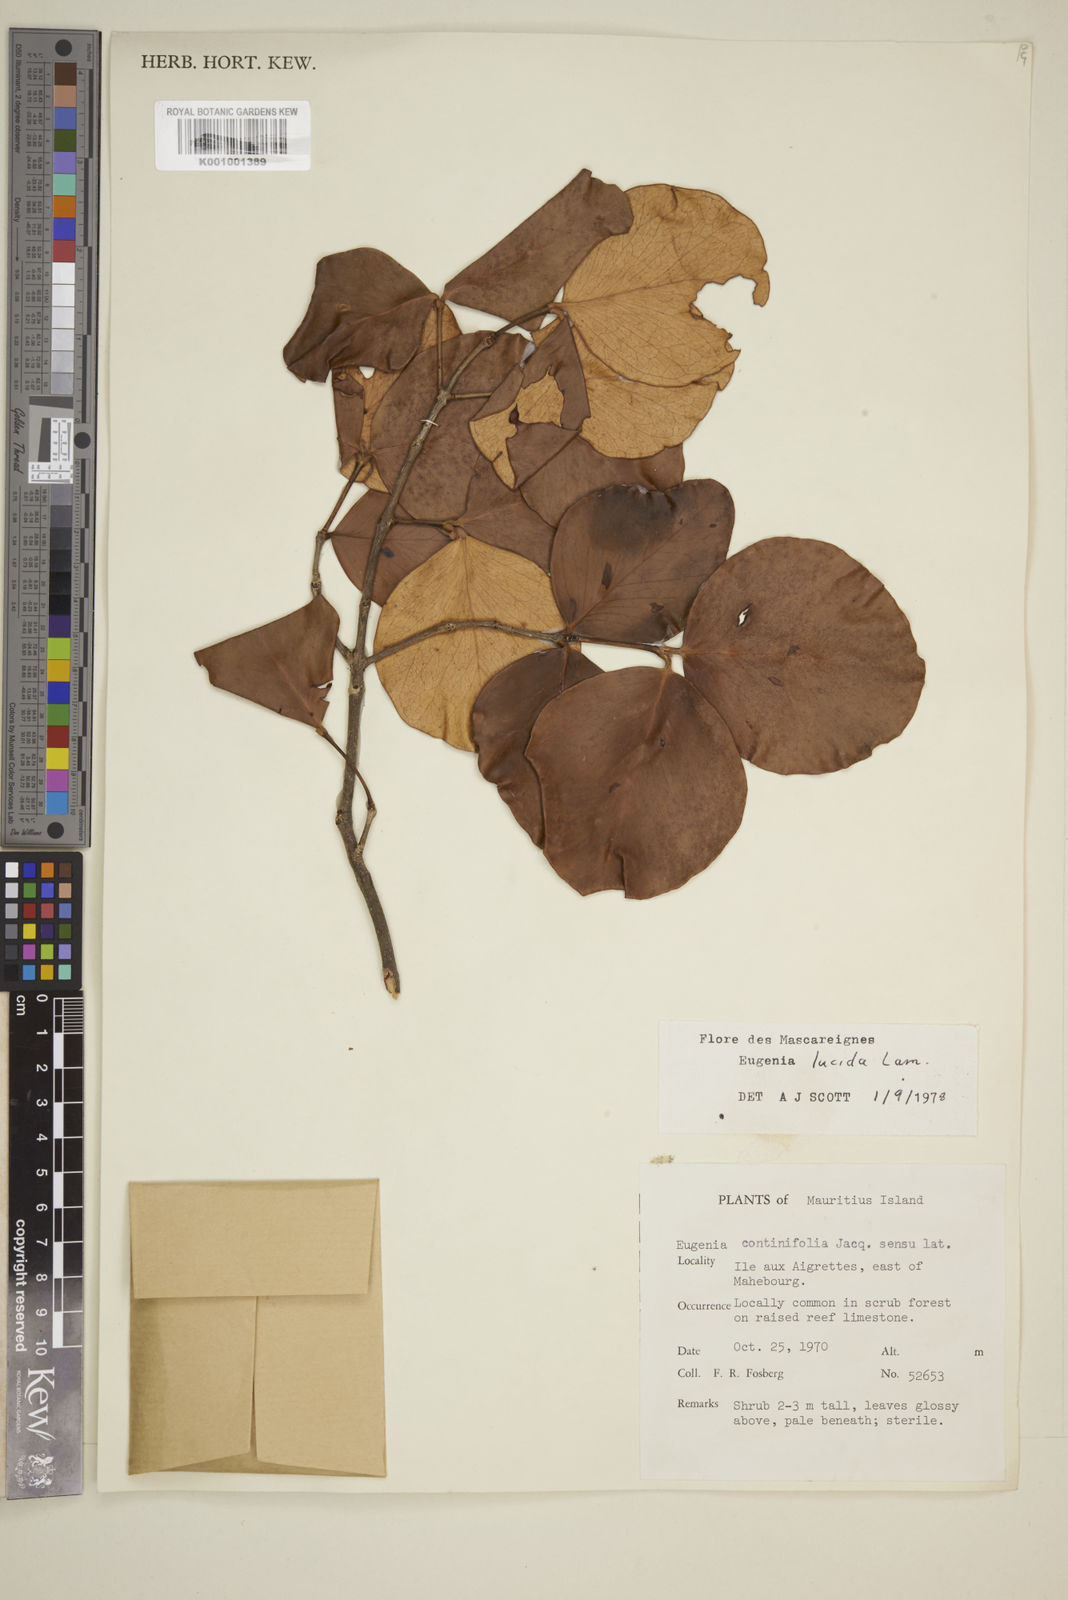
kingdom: Plantae
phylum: Tracheophyta
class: Magnoliopsida
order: Myrtales
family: Myrtaceae
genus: Eugenia
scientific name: Eugenia lucida
